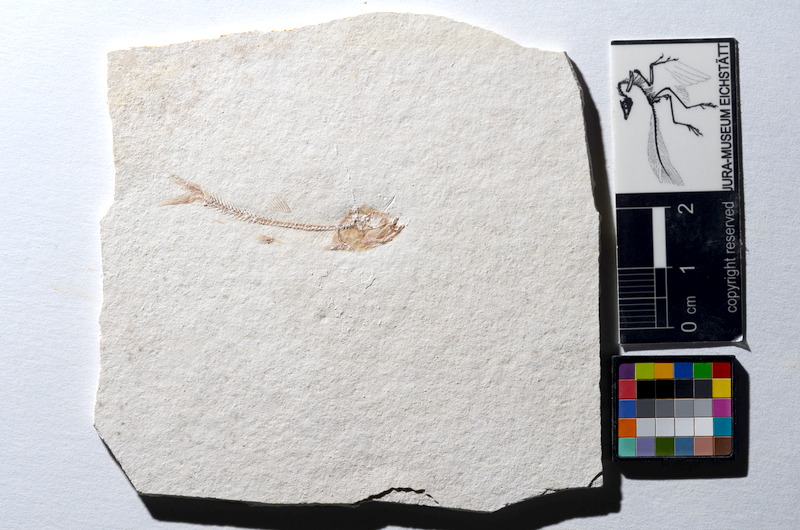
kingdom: Animalia
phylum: Chordata
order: Salmoniformes
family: Orthogonikleithridae
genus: Orthogonikleithrus
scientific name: Orthogonikleithrus hoelli
